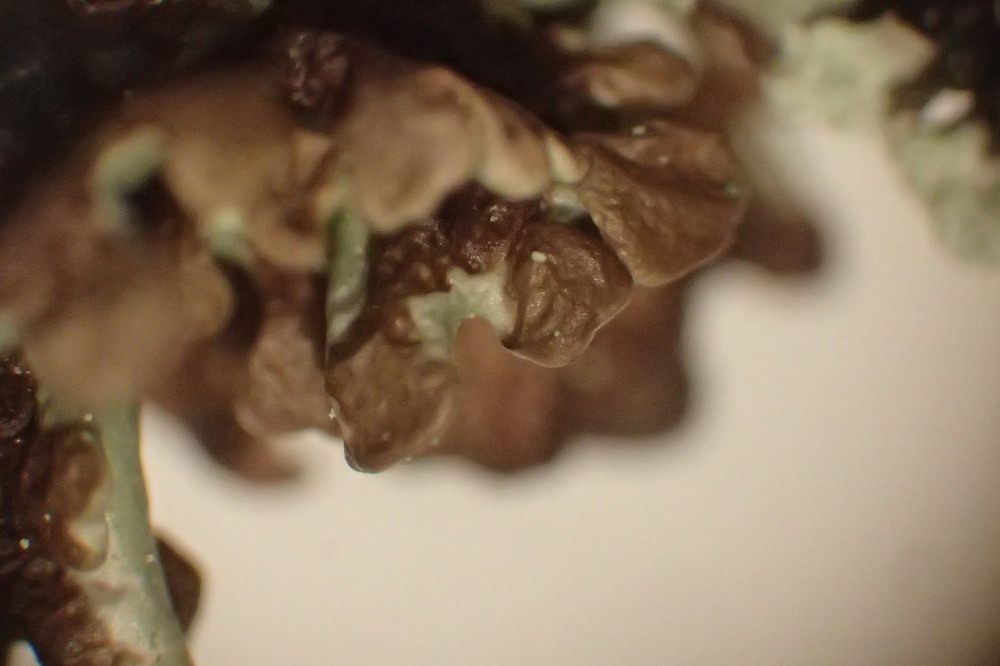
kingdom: Fungi
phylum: Ascomycota
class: Lecanoromycetes
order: Lecanorales
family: Parmeliaceae
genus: Hypogymnia
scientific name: Hypogymnia physodes
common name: almindelig kvistlav
